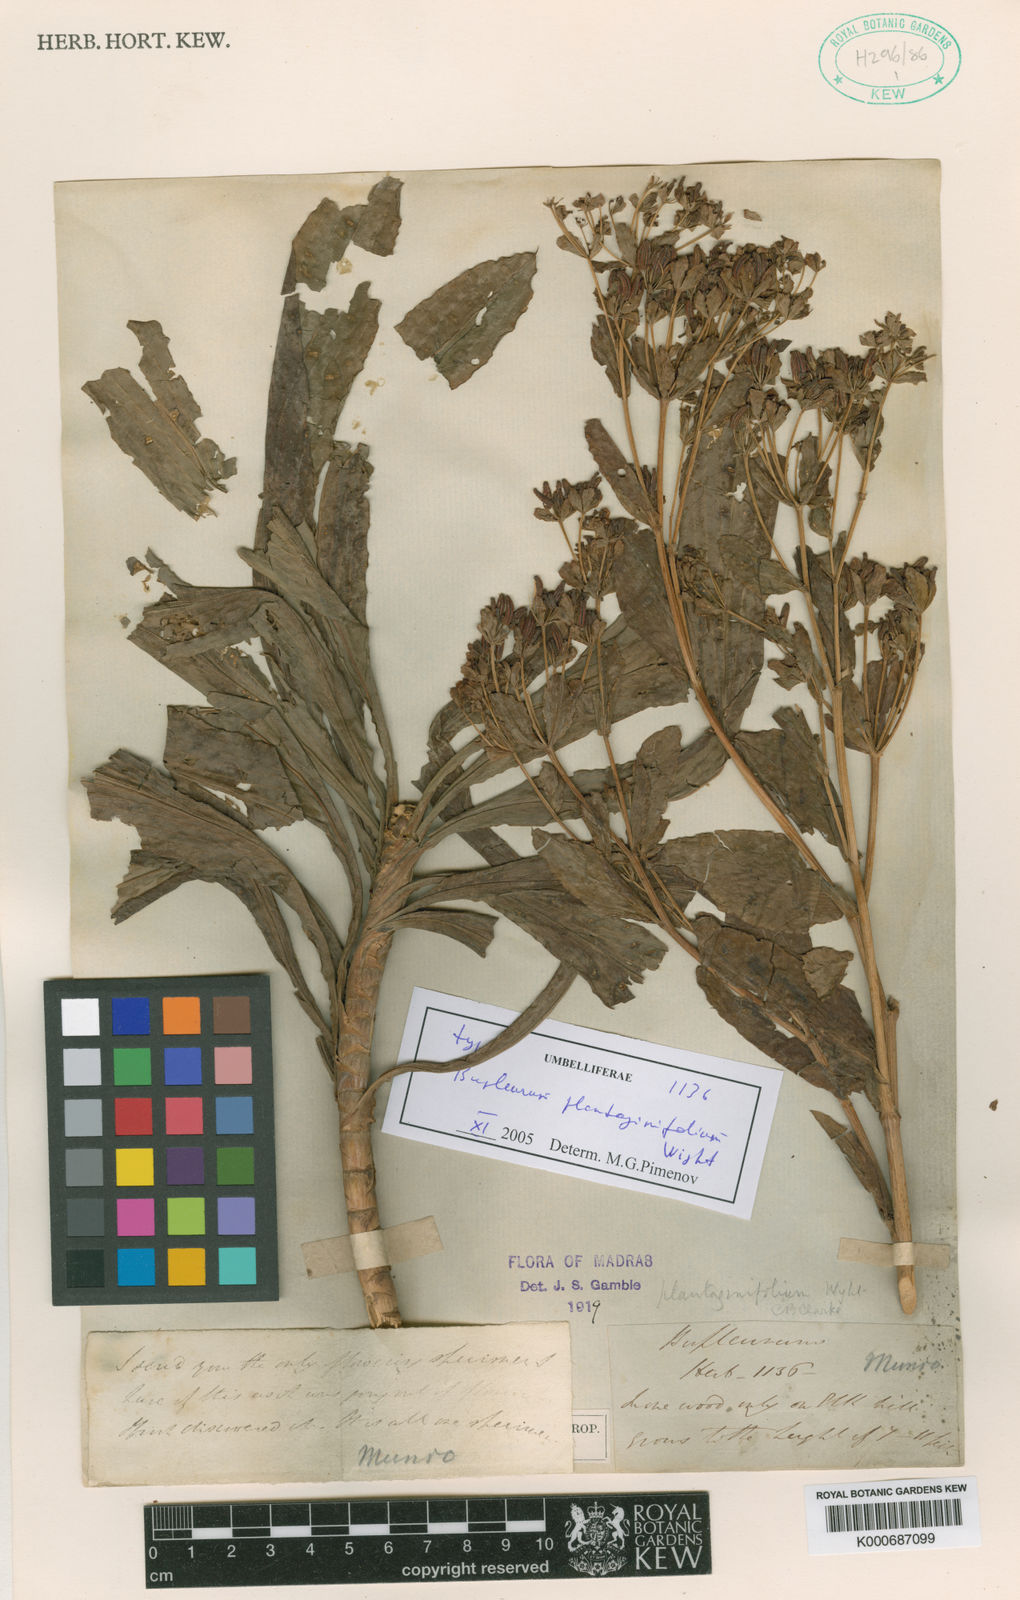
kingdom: Plantae
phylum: Tracheophyta
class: Magnoliopsida
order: Apiales
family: Apiaceae
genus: Bupleurum
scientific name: Bupleurum plantaginifolium
